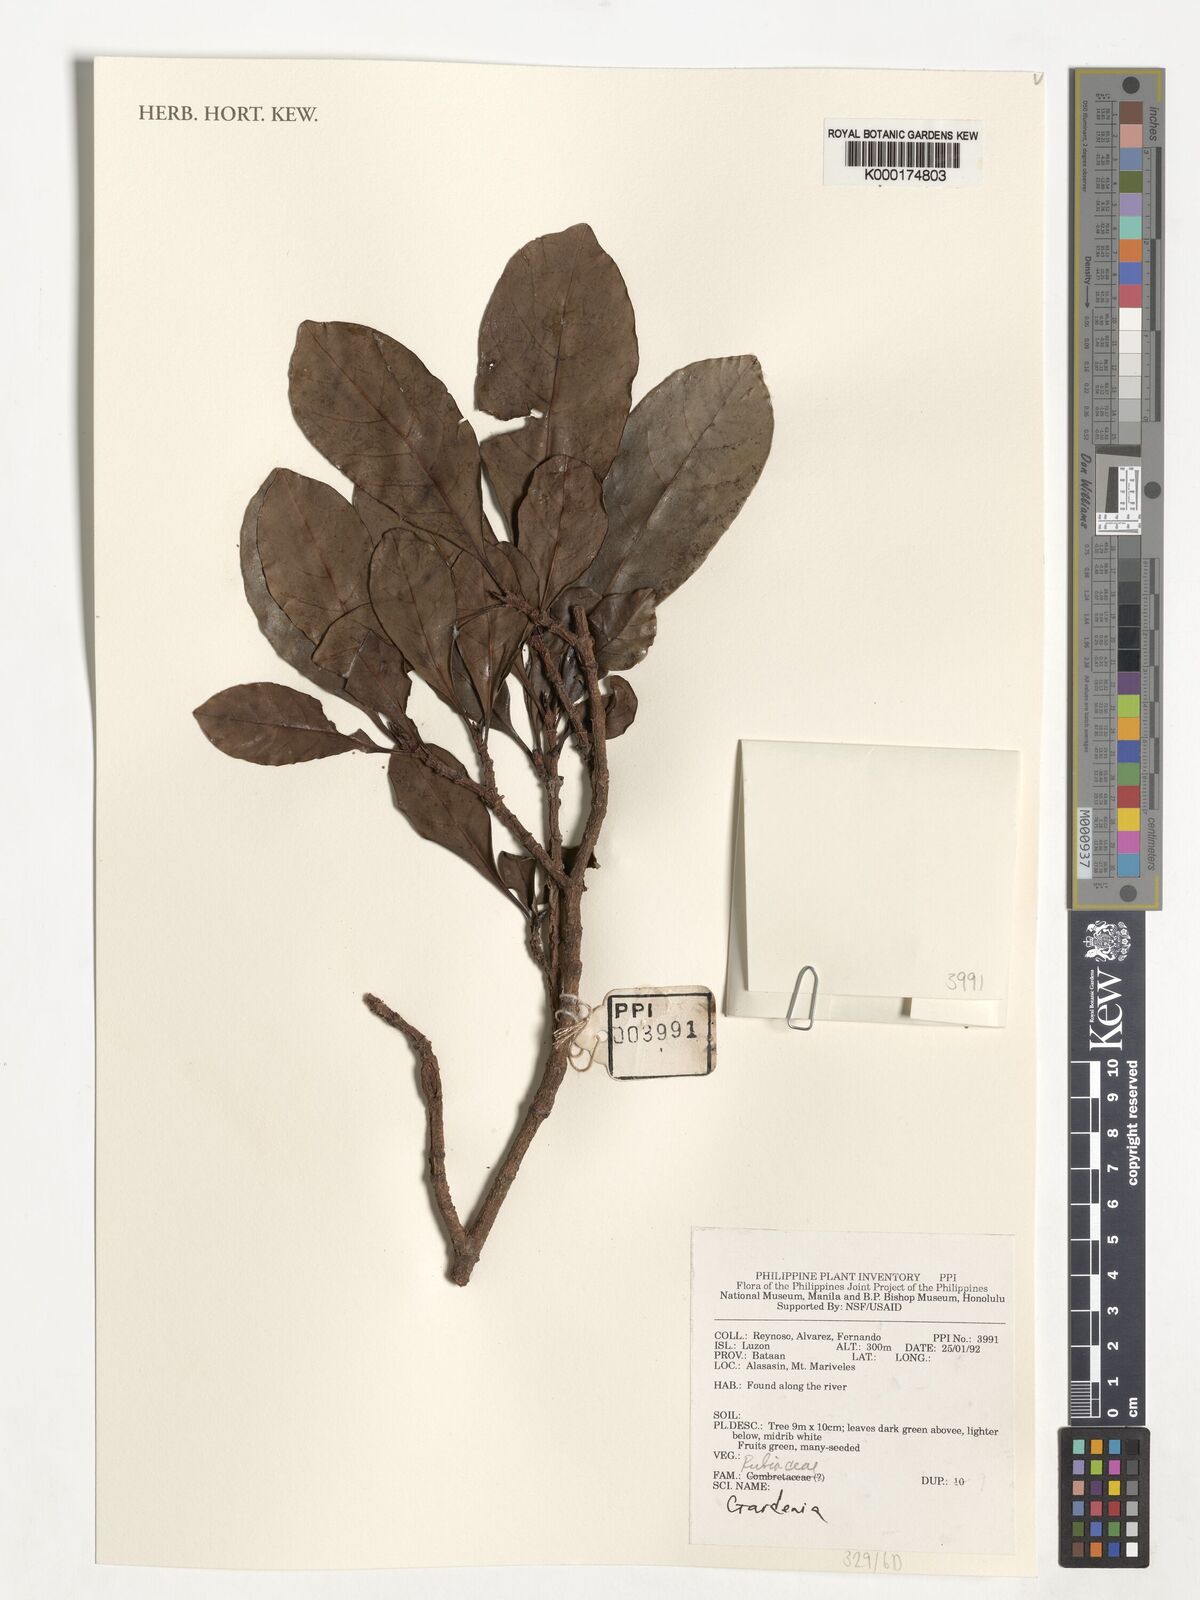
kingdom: Plantae
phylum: Tracheophyta
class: Magnoliopsida
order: Gentianales
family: Rubiaceae
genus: Gardenia
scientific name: Gardenia
